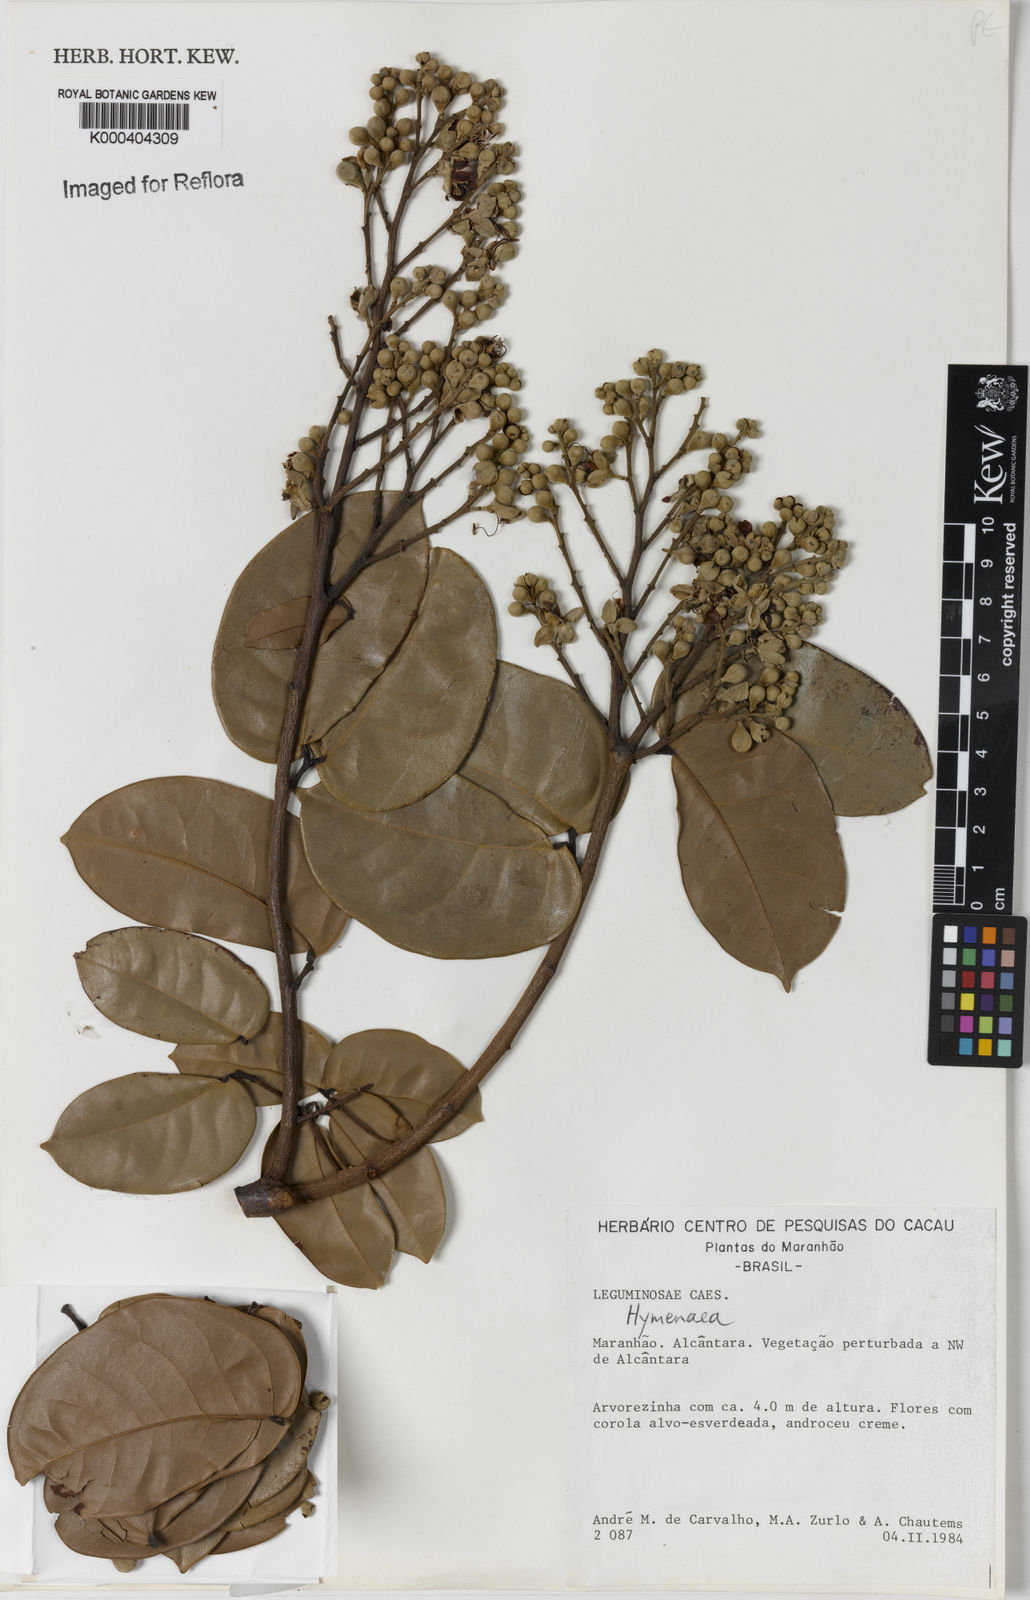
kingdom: Plantae
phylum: Tracheophyta
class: Magnoliopsida
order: Fabales
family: Fabaceae
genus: Hymenaea
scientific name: Hymenaea
